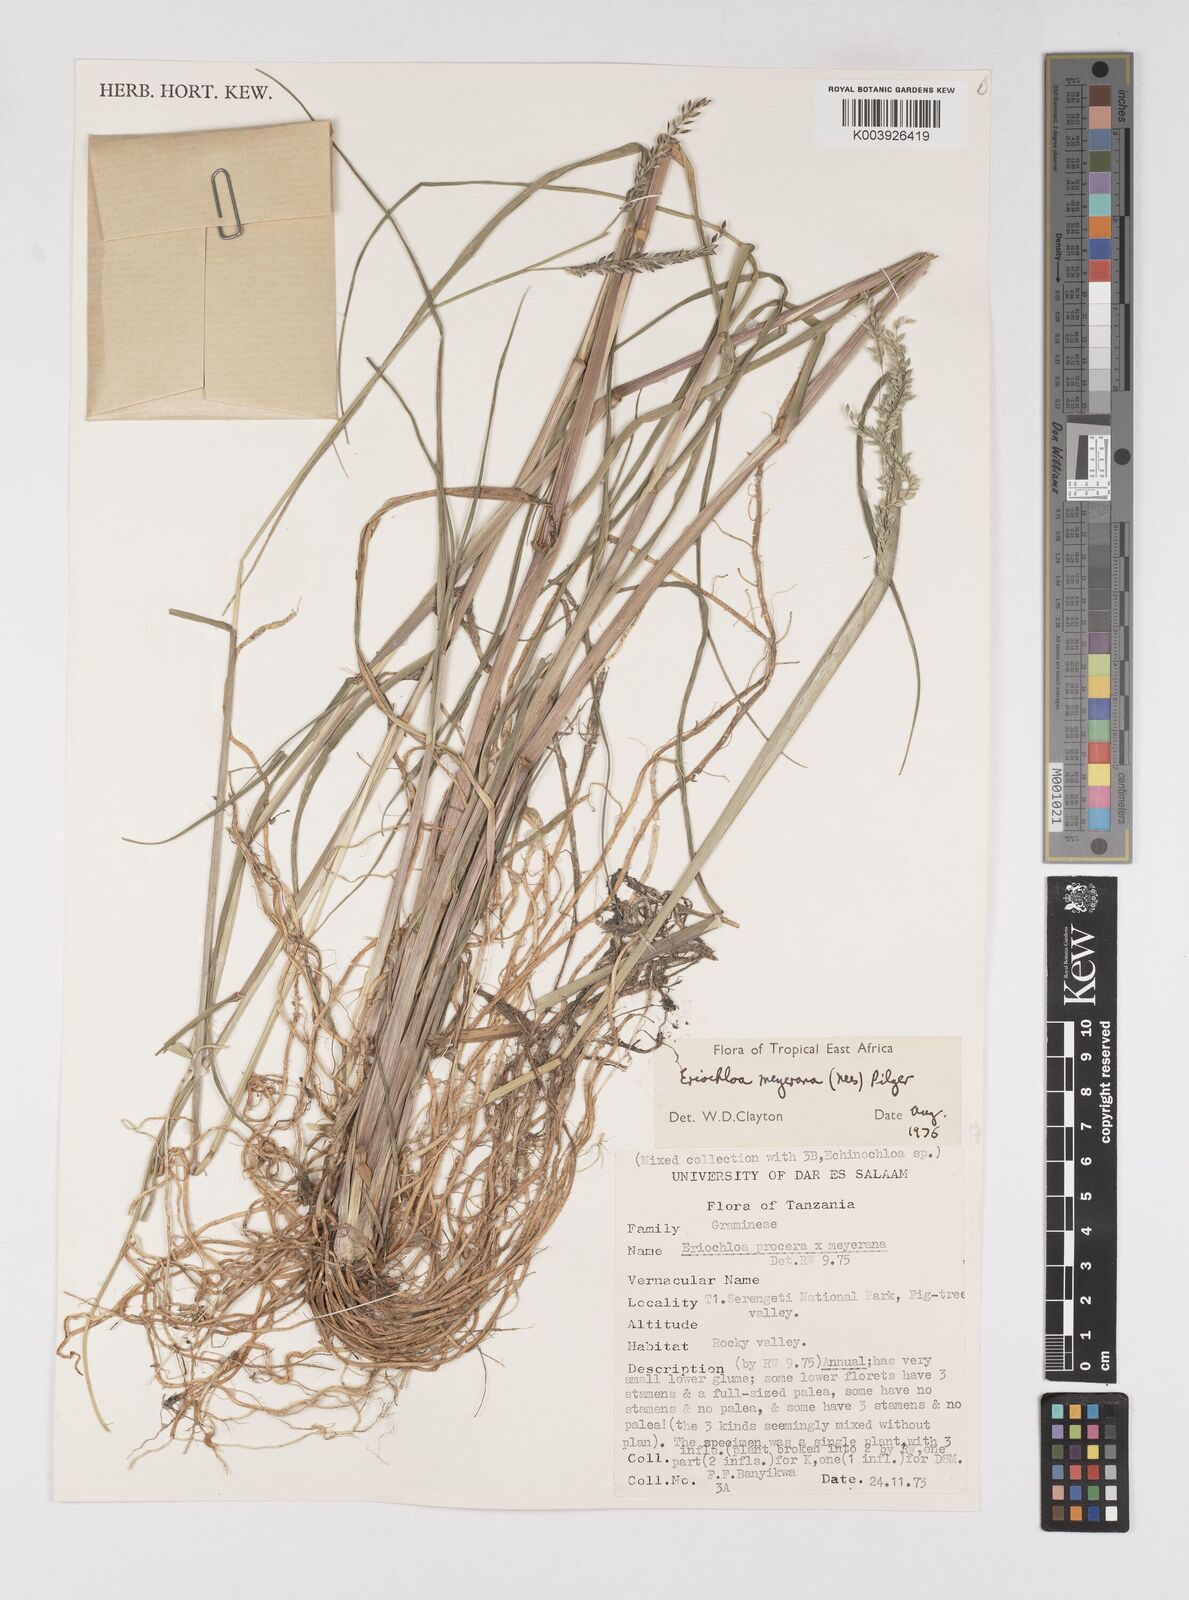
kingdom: Plantae
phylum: Tracheophyta
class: Liliopsida
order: Poales
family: Poaceae
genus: Eriochloa
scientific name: Eriochloa meyeriana
